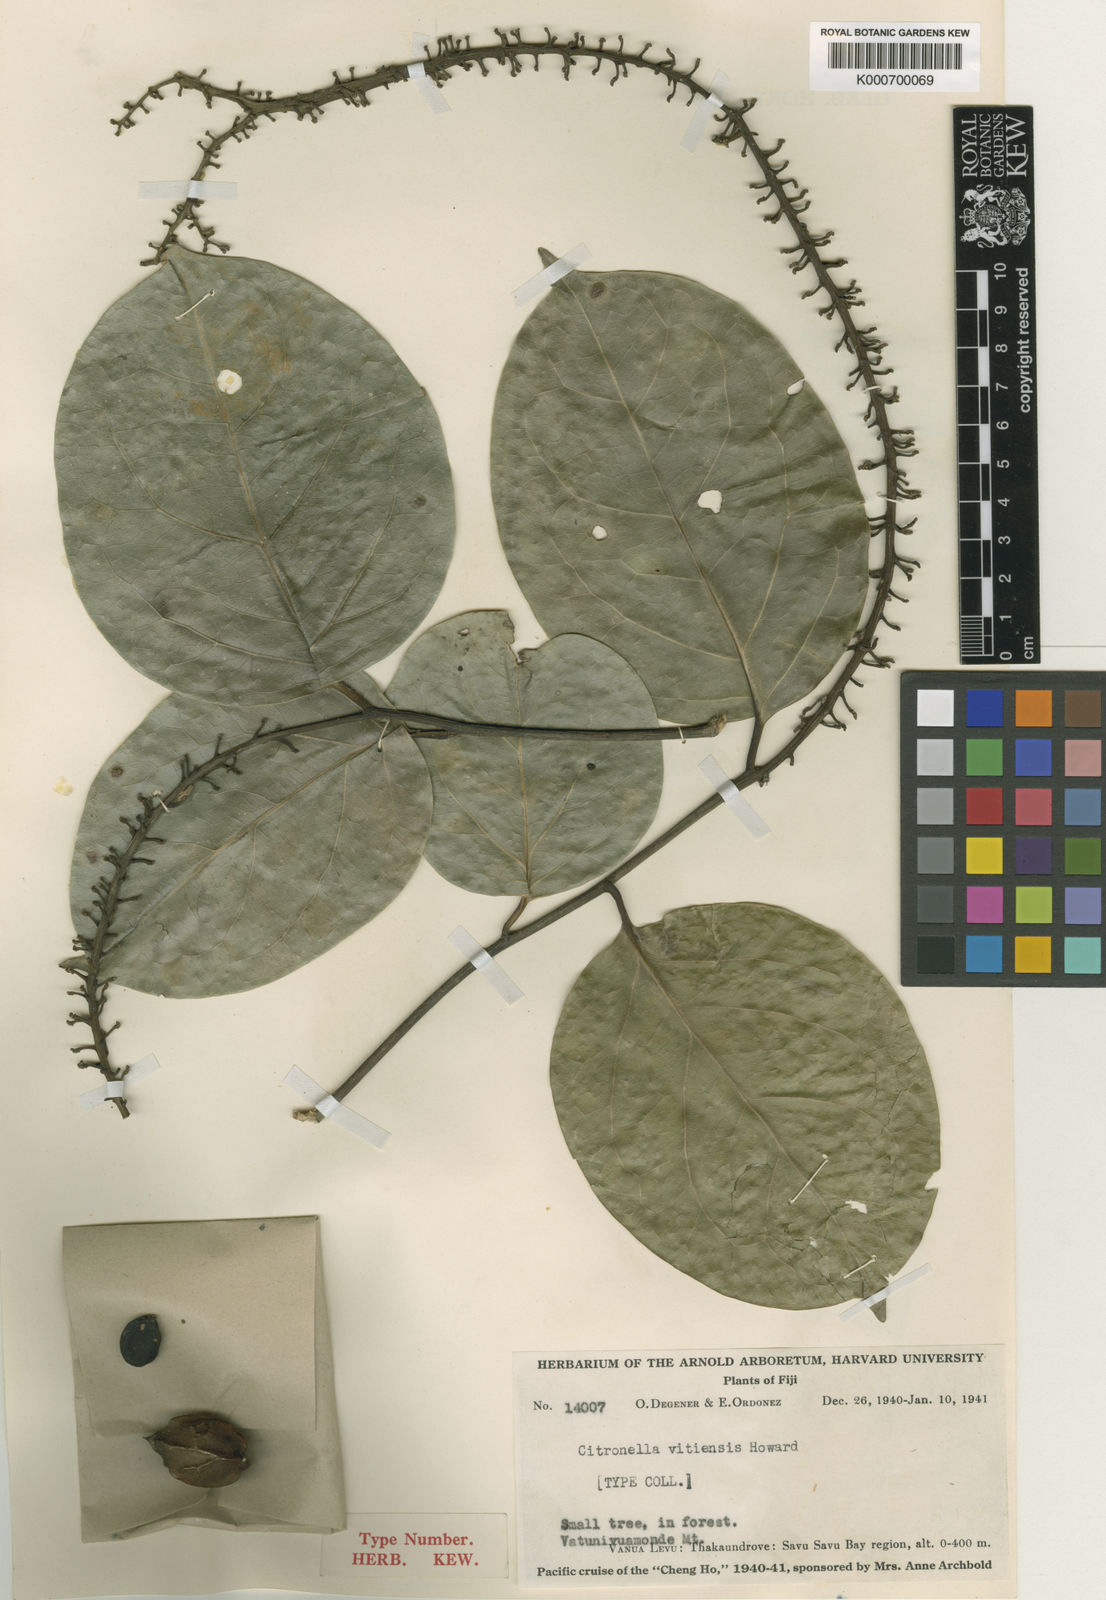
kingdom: Plantae
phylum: Tracheophyta
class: Magnoliopsida
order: Cardiopteridales
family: Cardiopteridaceae
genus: Citronella
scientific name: Citronella vitiensis
